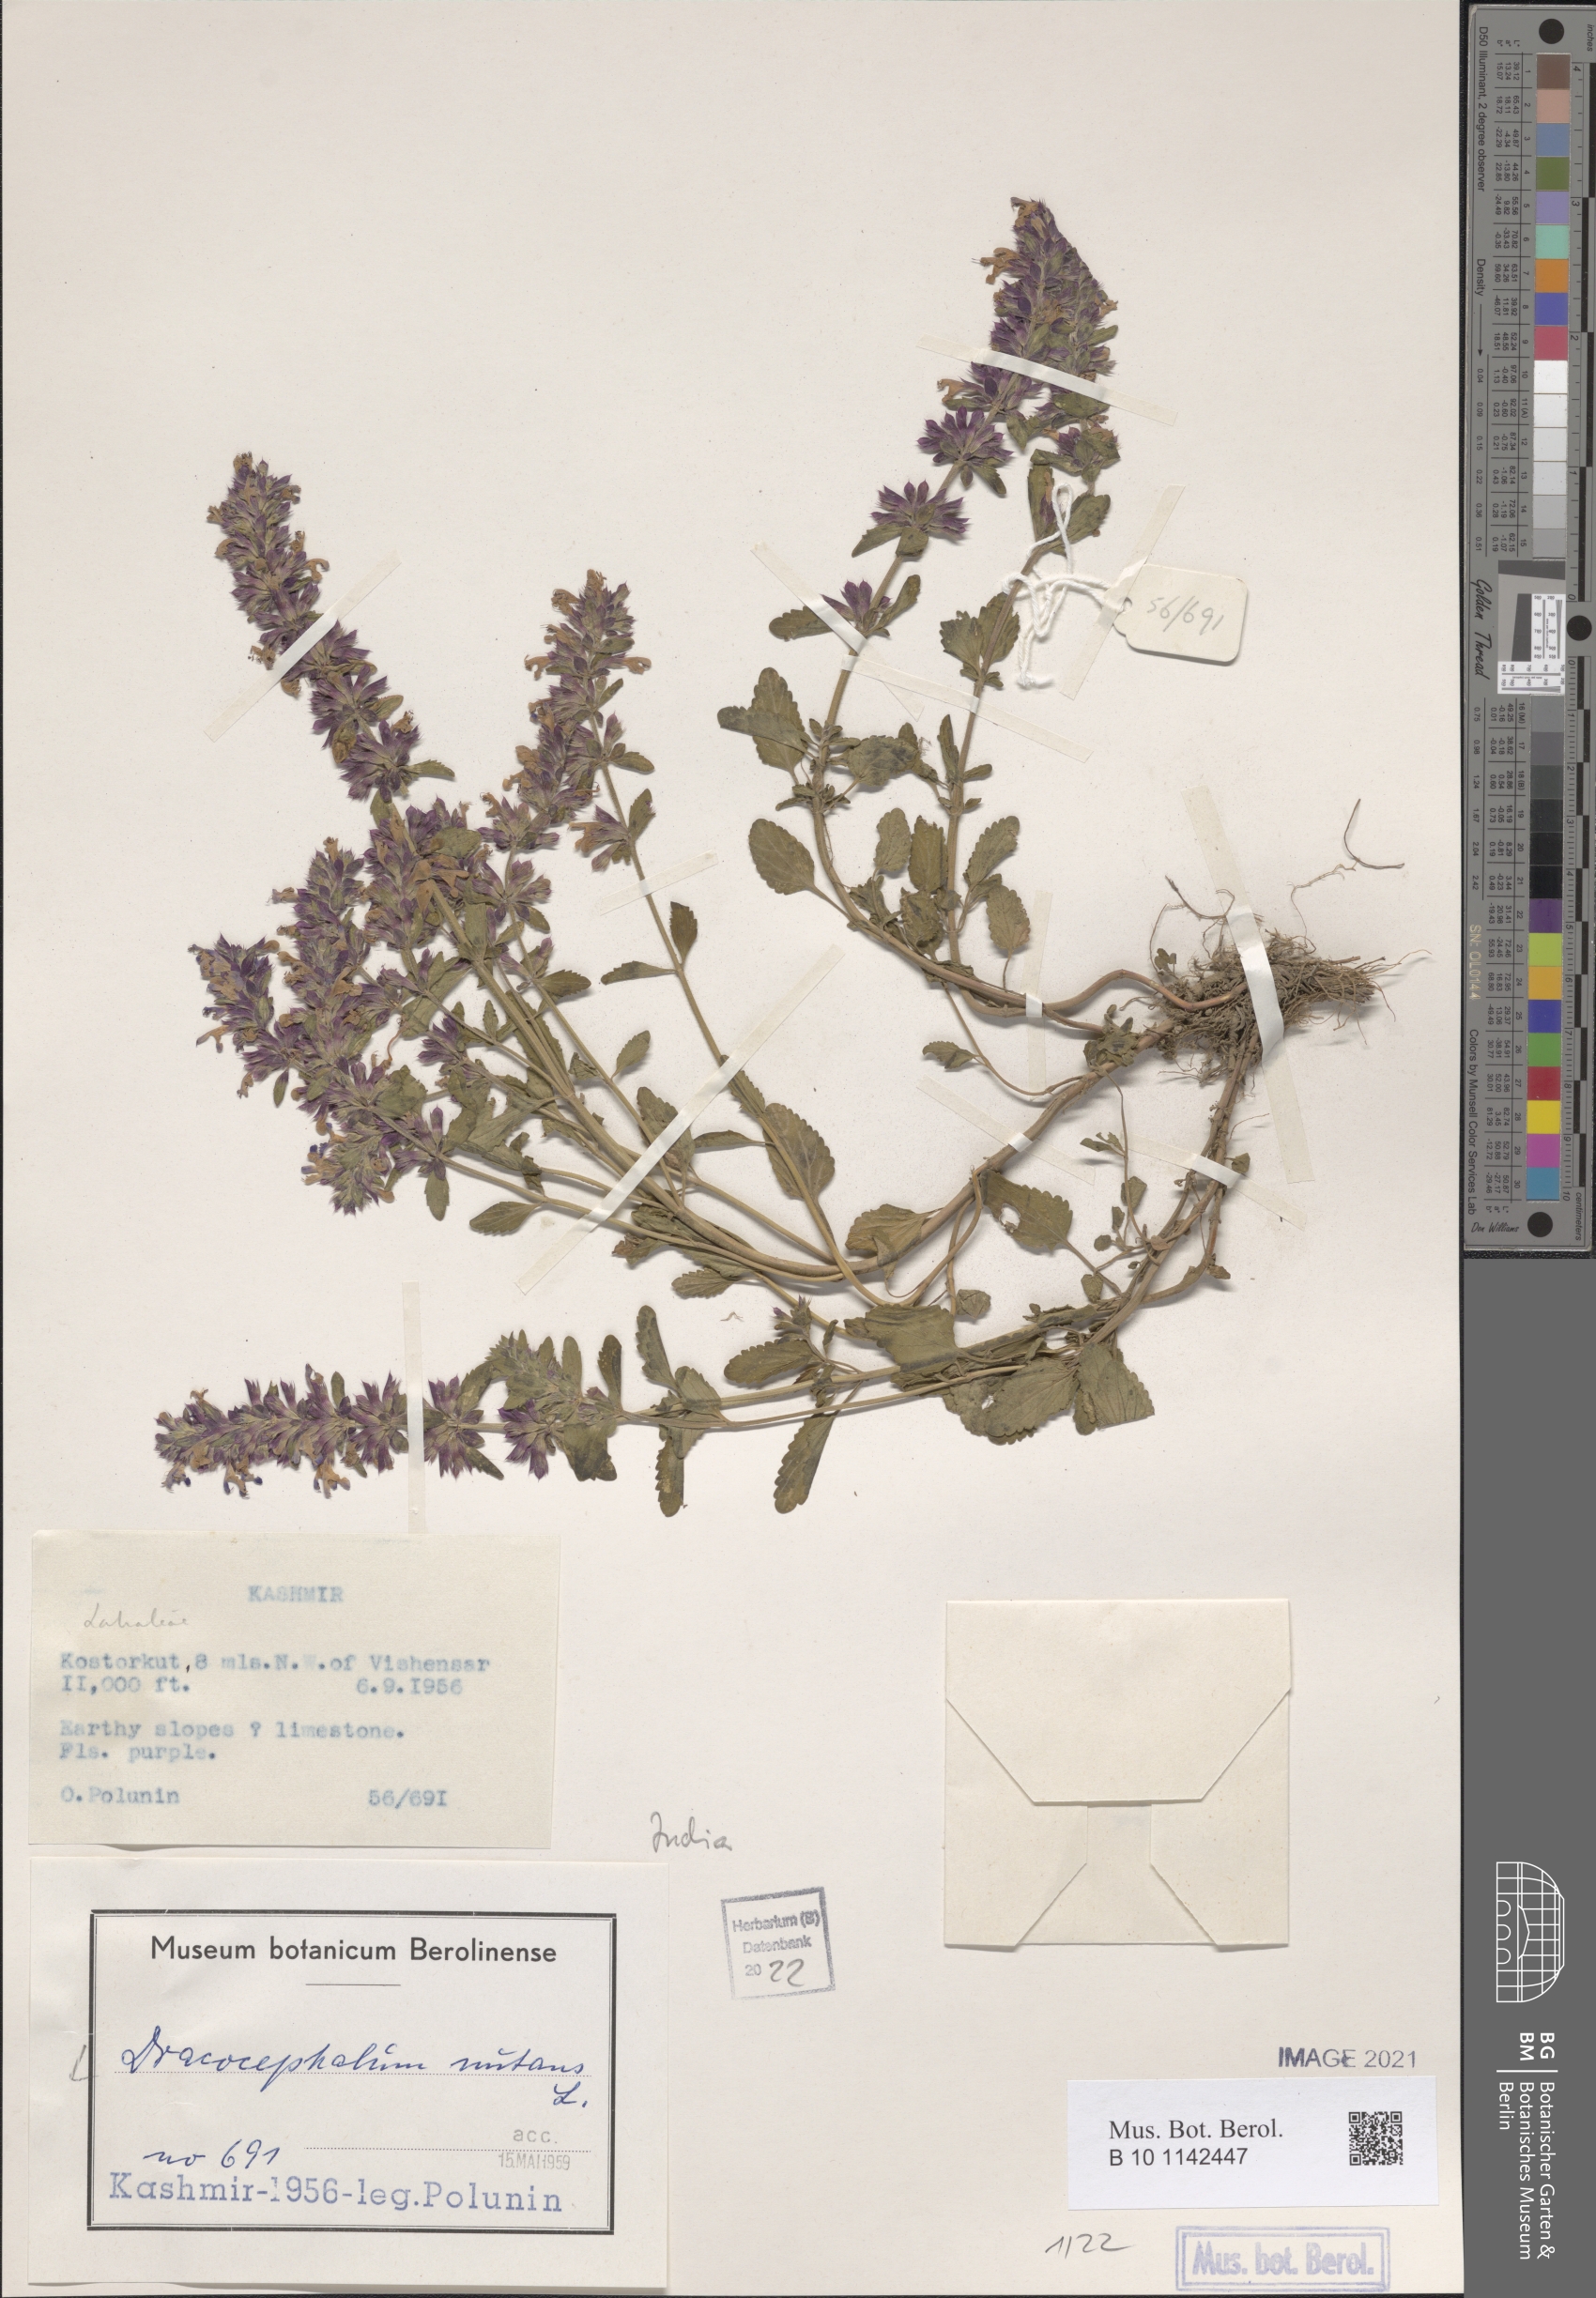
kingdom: Plantae
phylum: Tracheophyta
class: Magnoliopsida
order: Lamiales
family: Lamiaceae
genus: Dracocephalum
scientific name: Dracocephalum nutans
